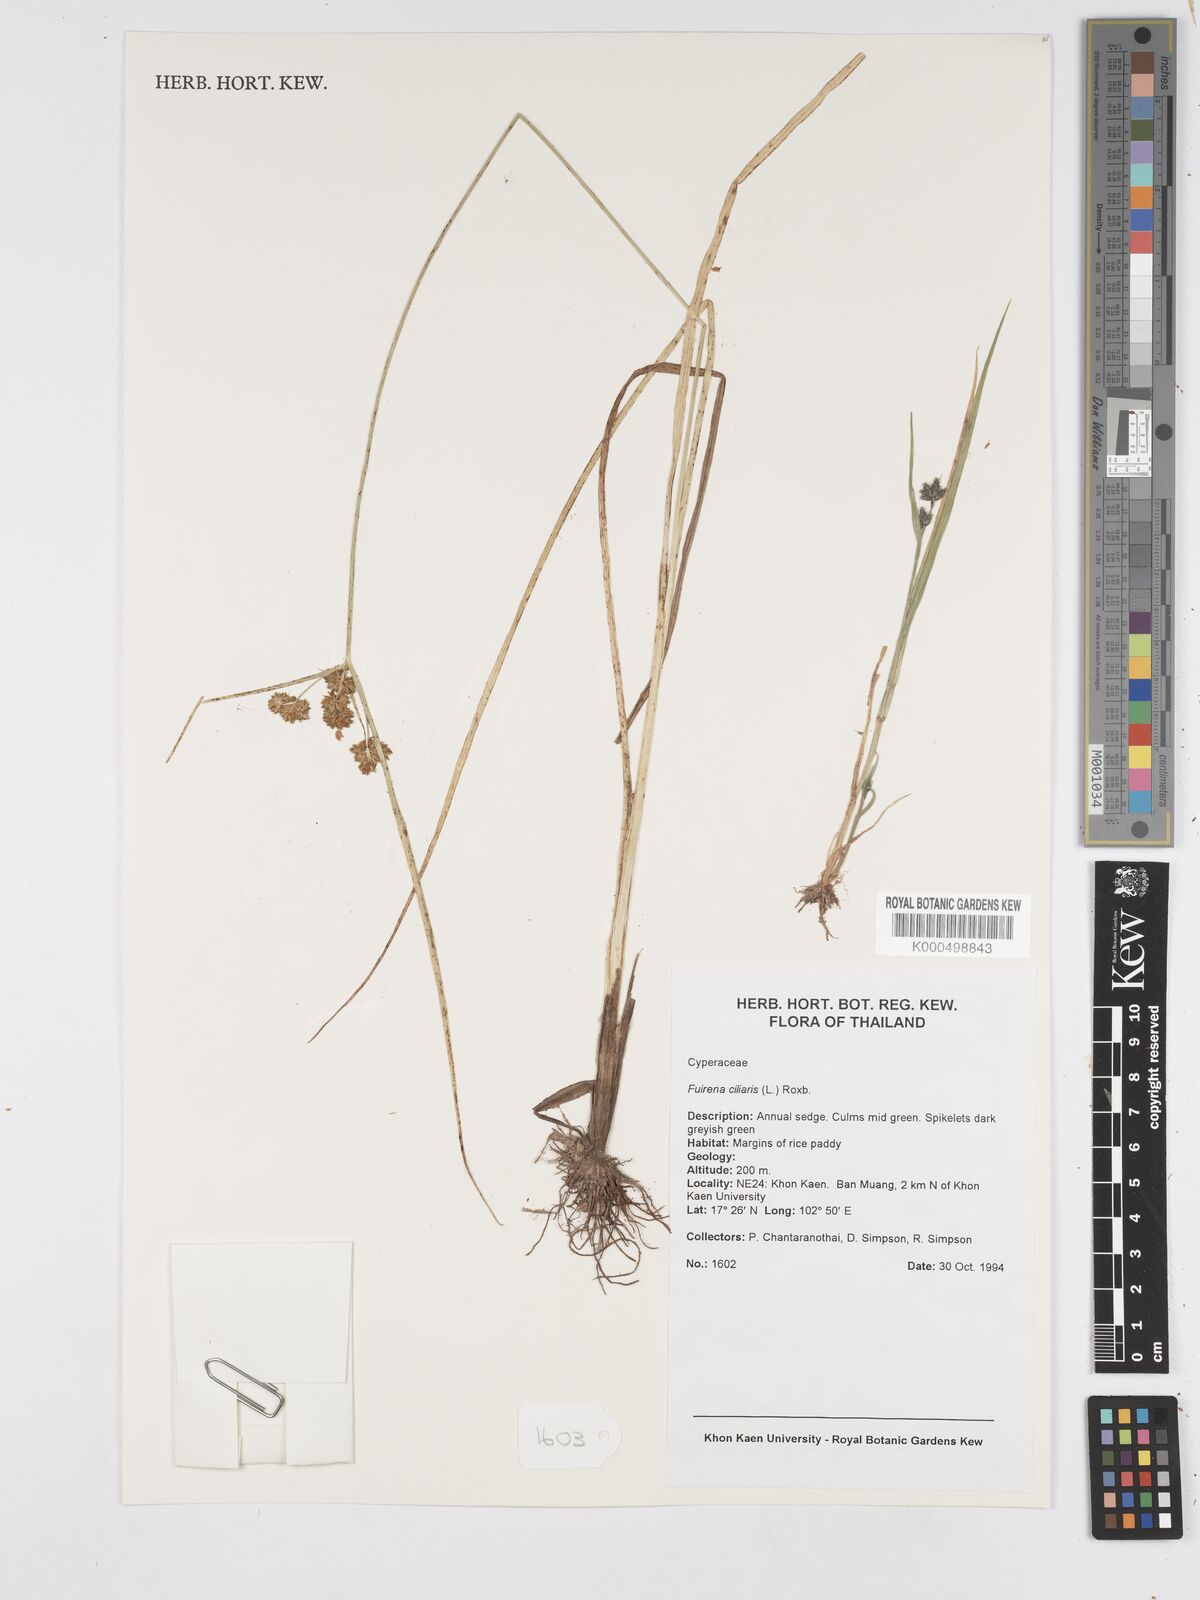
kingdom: Plantae
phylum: Tracheophyta
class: Liliopsida
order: Poales
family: Cyperaceae
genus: Fuirena
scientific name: Fuirena ciliaris
